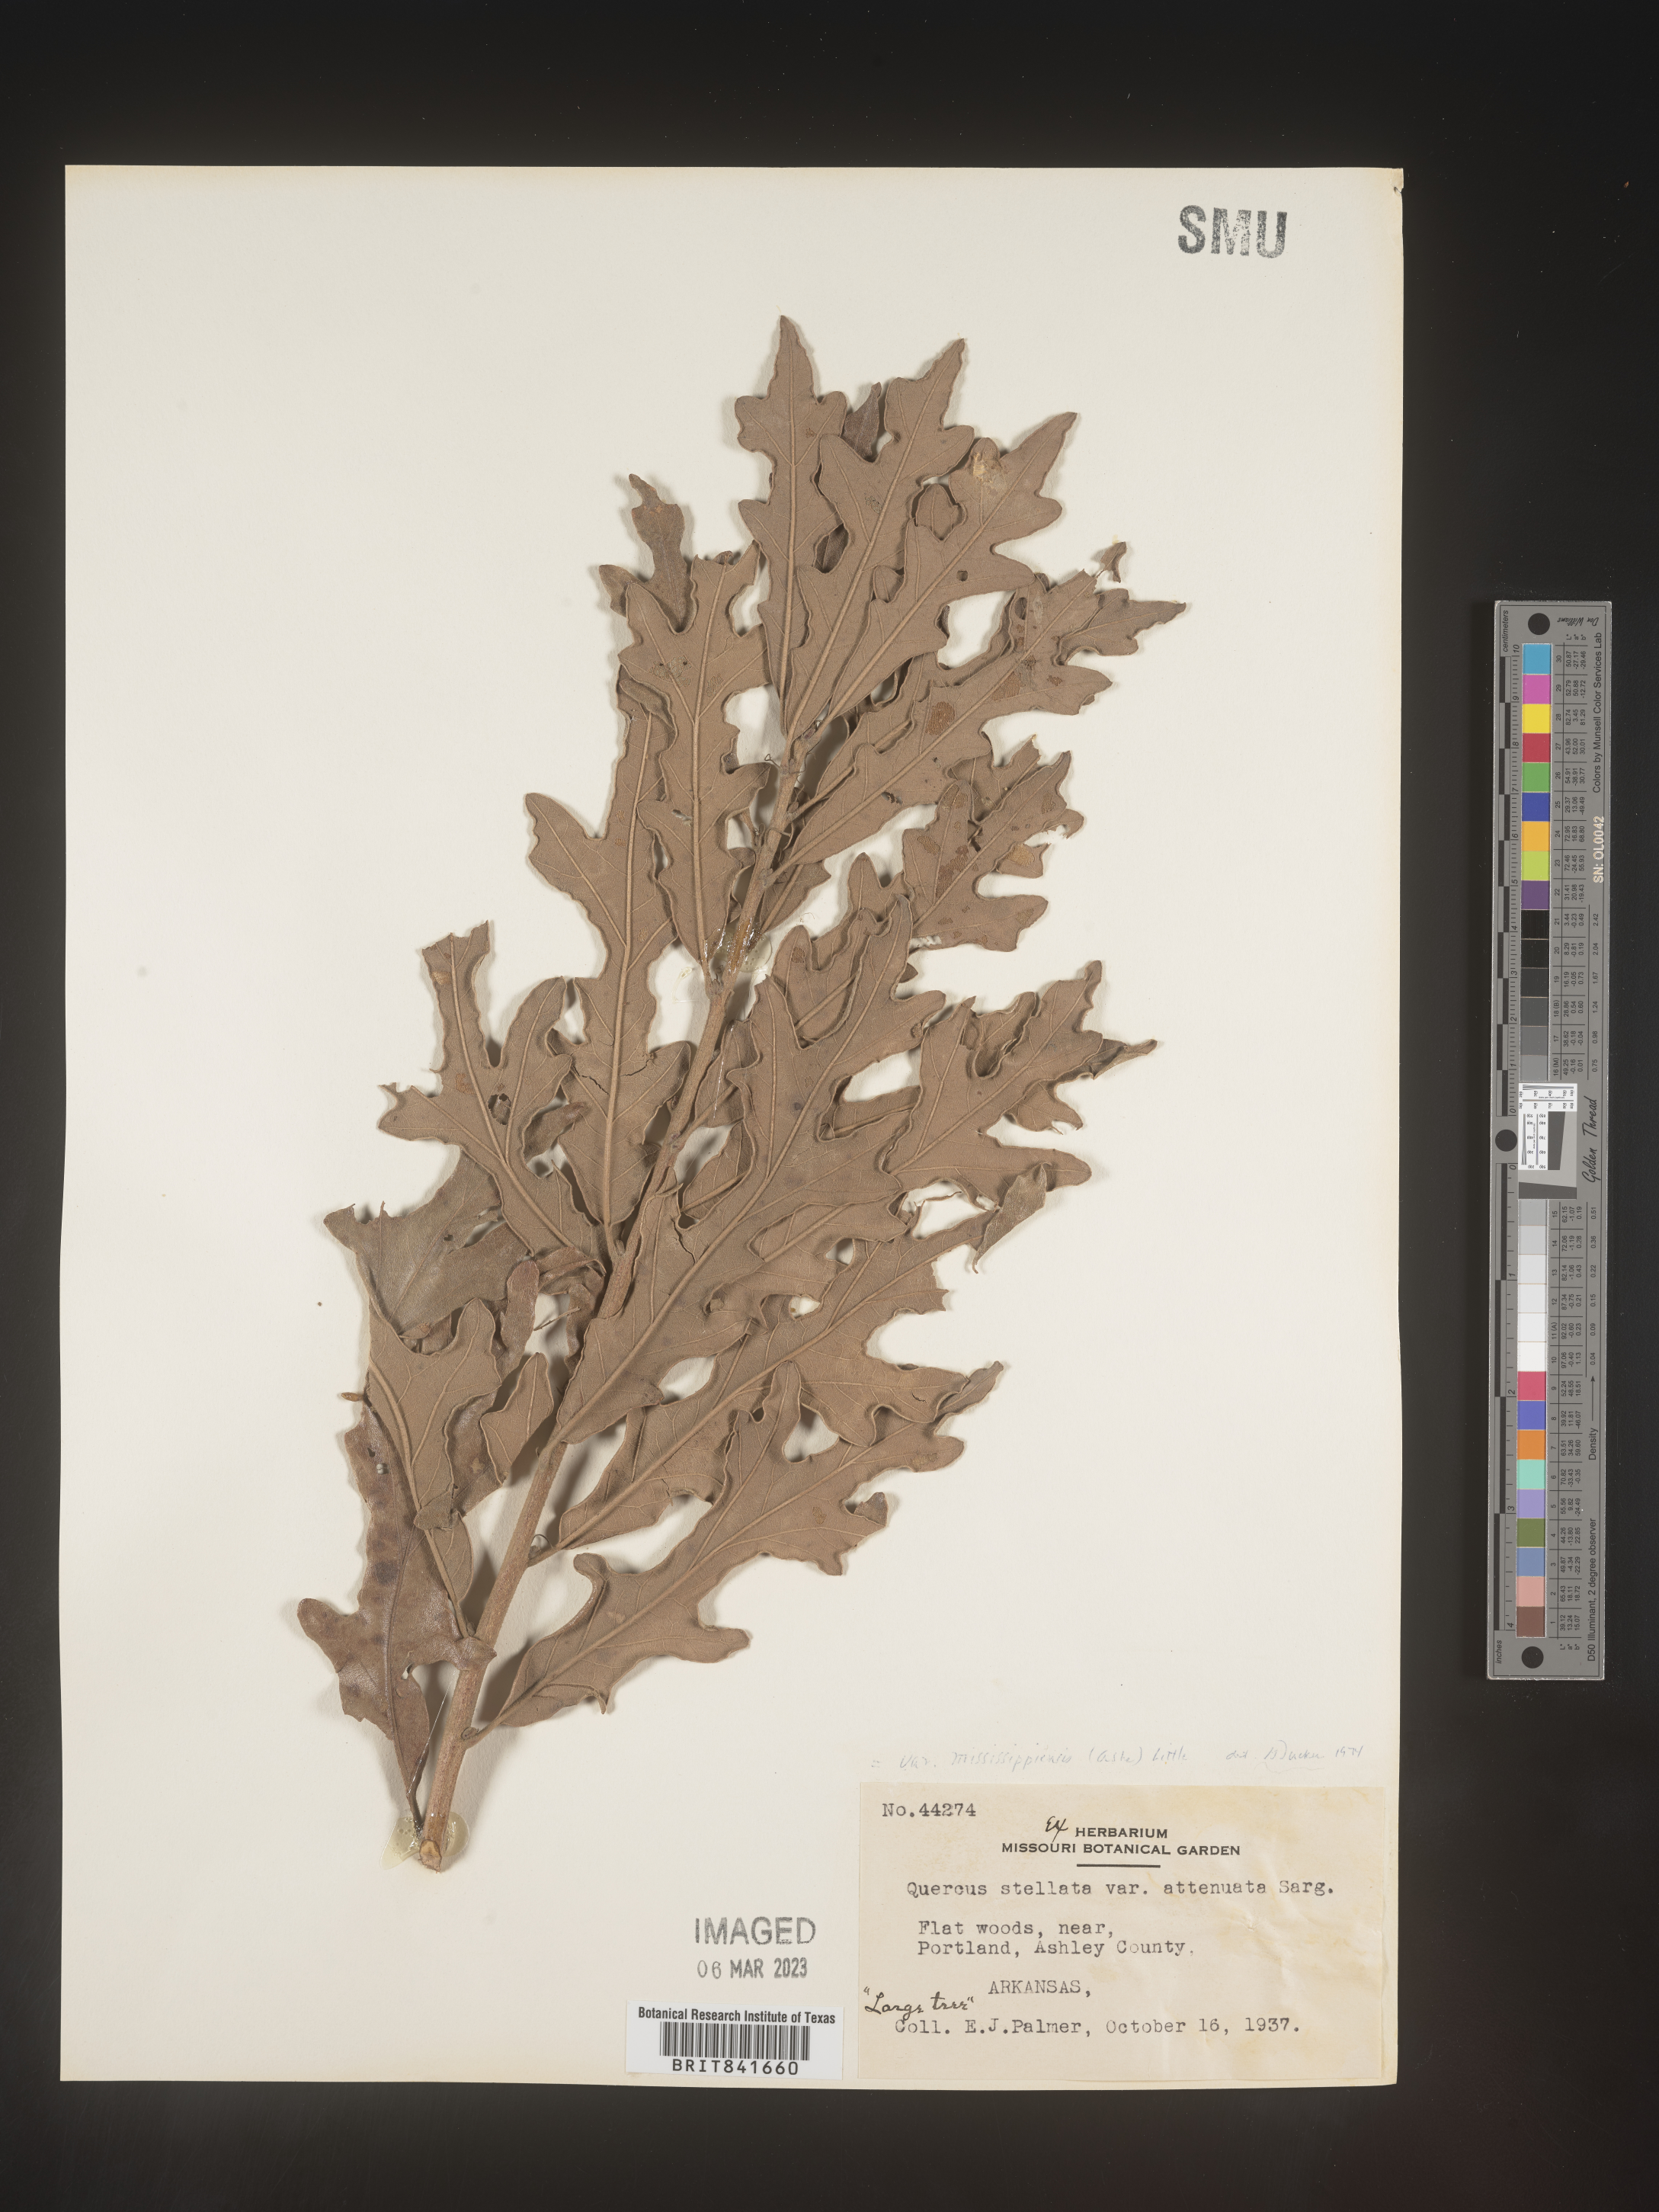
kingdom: Plantae
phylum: Tracheophyta
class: Magnoliopsida
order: Fagales
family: Fagaceae
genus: Quercus
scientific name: Quercus stellata
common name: Post oak
